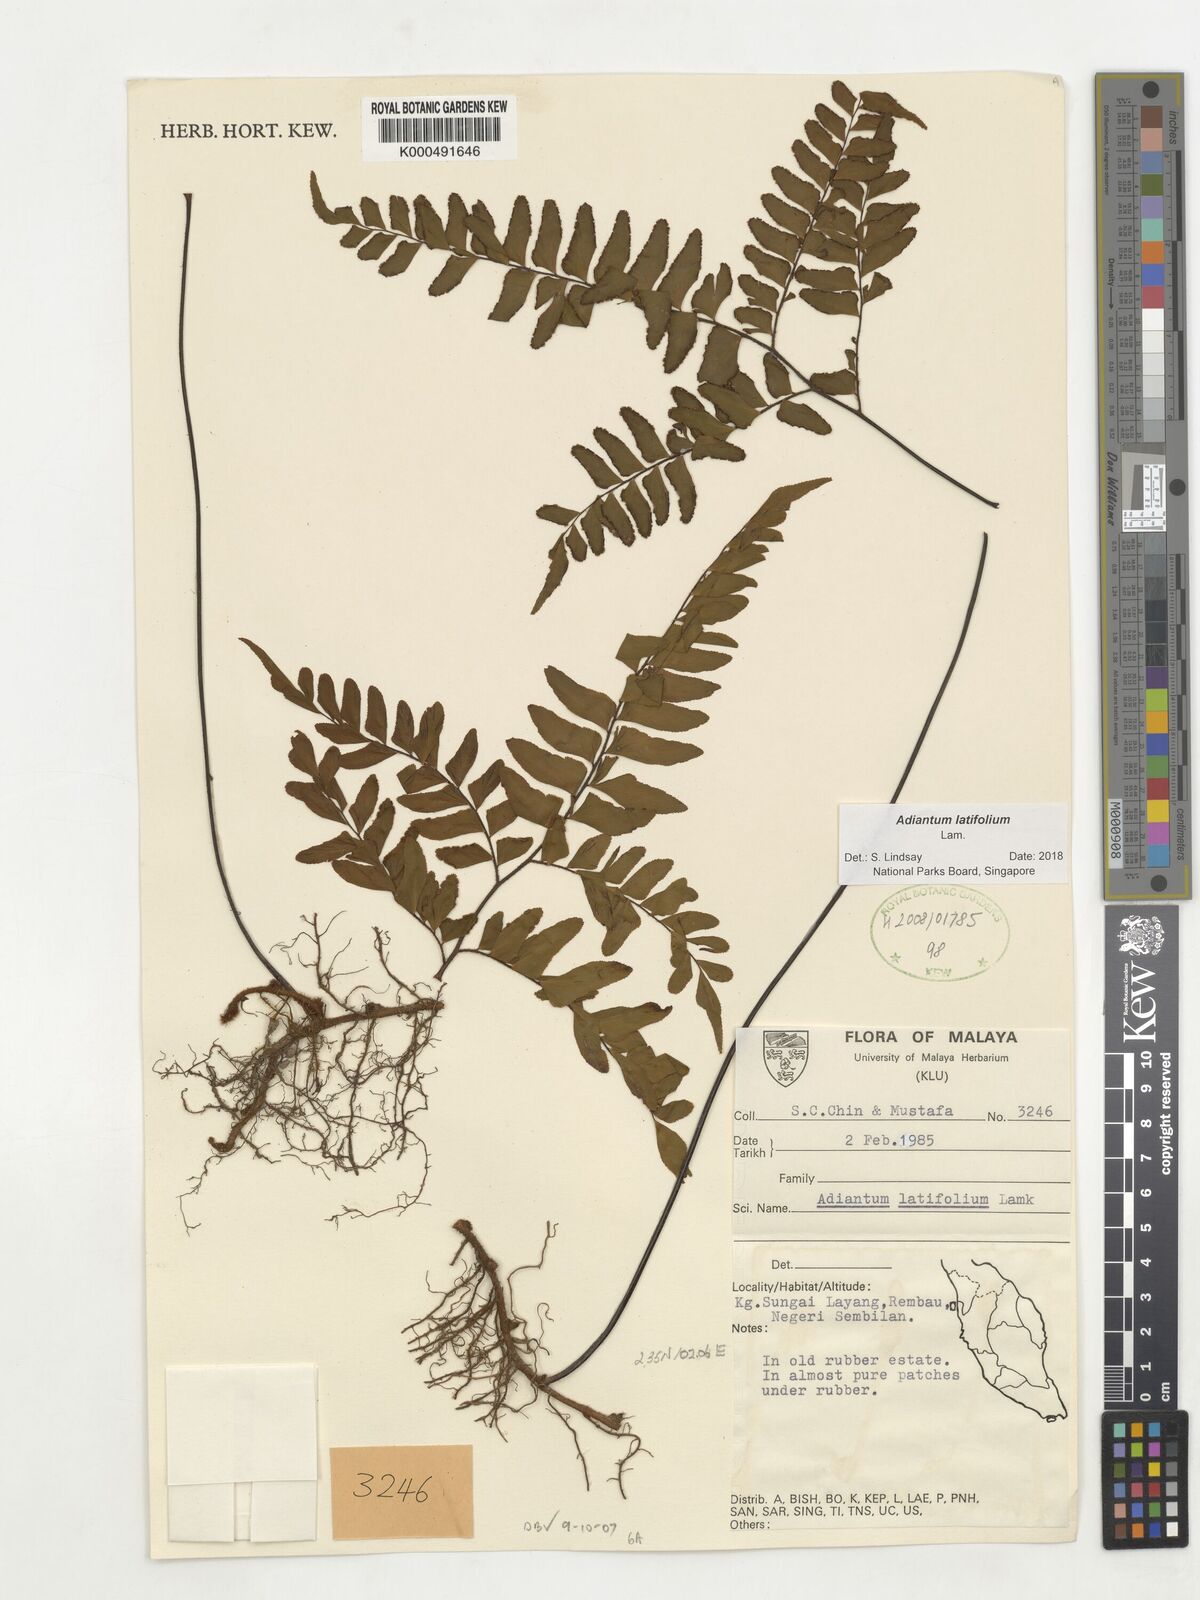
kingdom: Plantae
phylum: Tracheophyta
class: Polypodiopsida
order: Polypodiales
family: Pteridaceae
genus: Adiantum
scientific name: Adiantum latifolium
